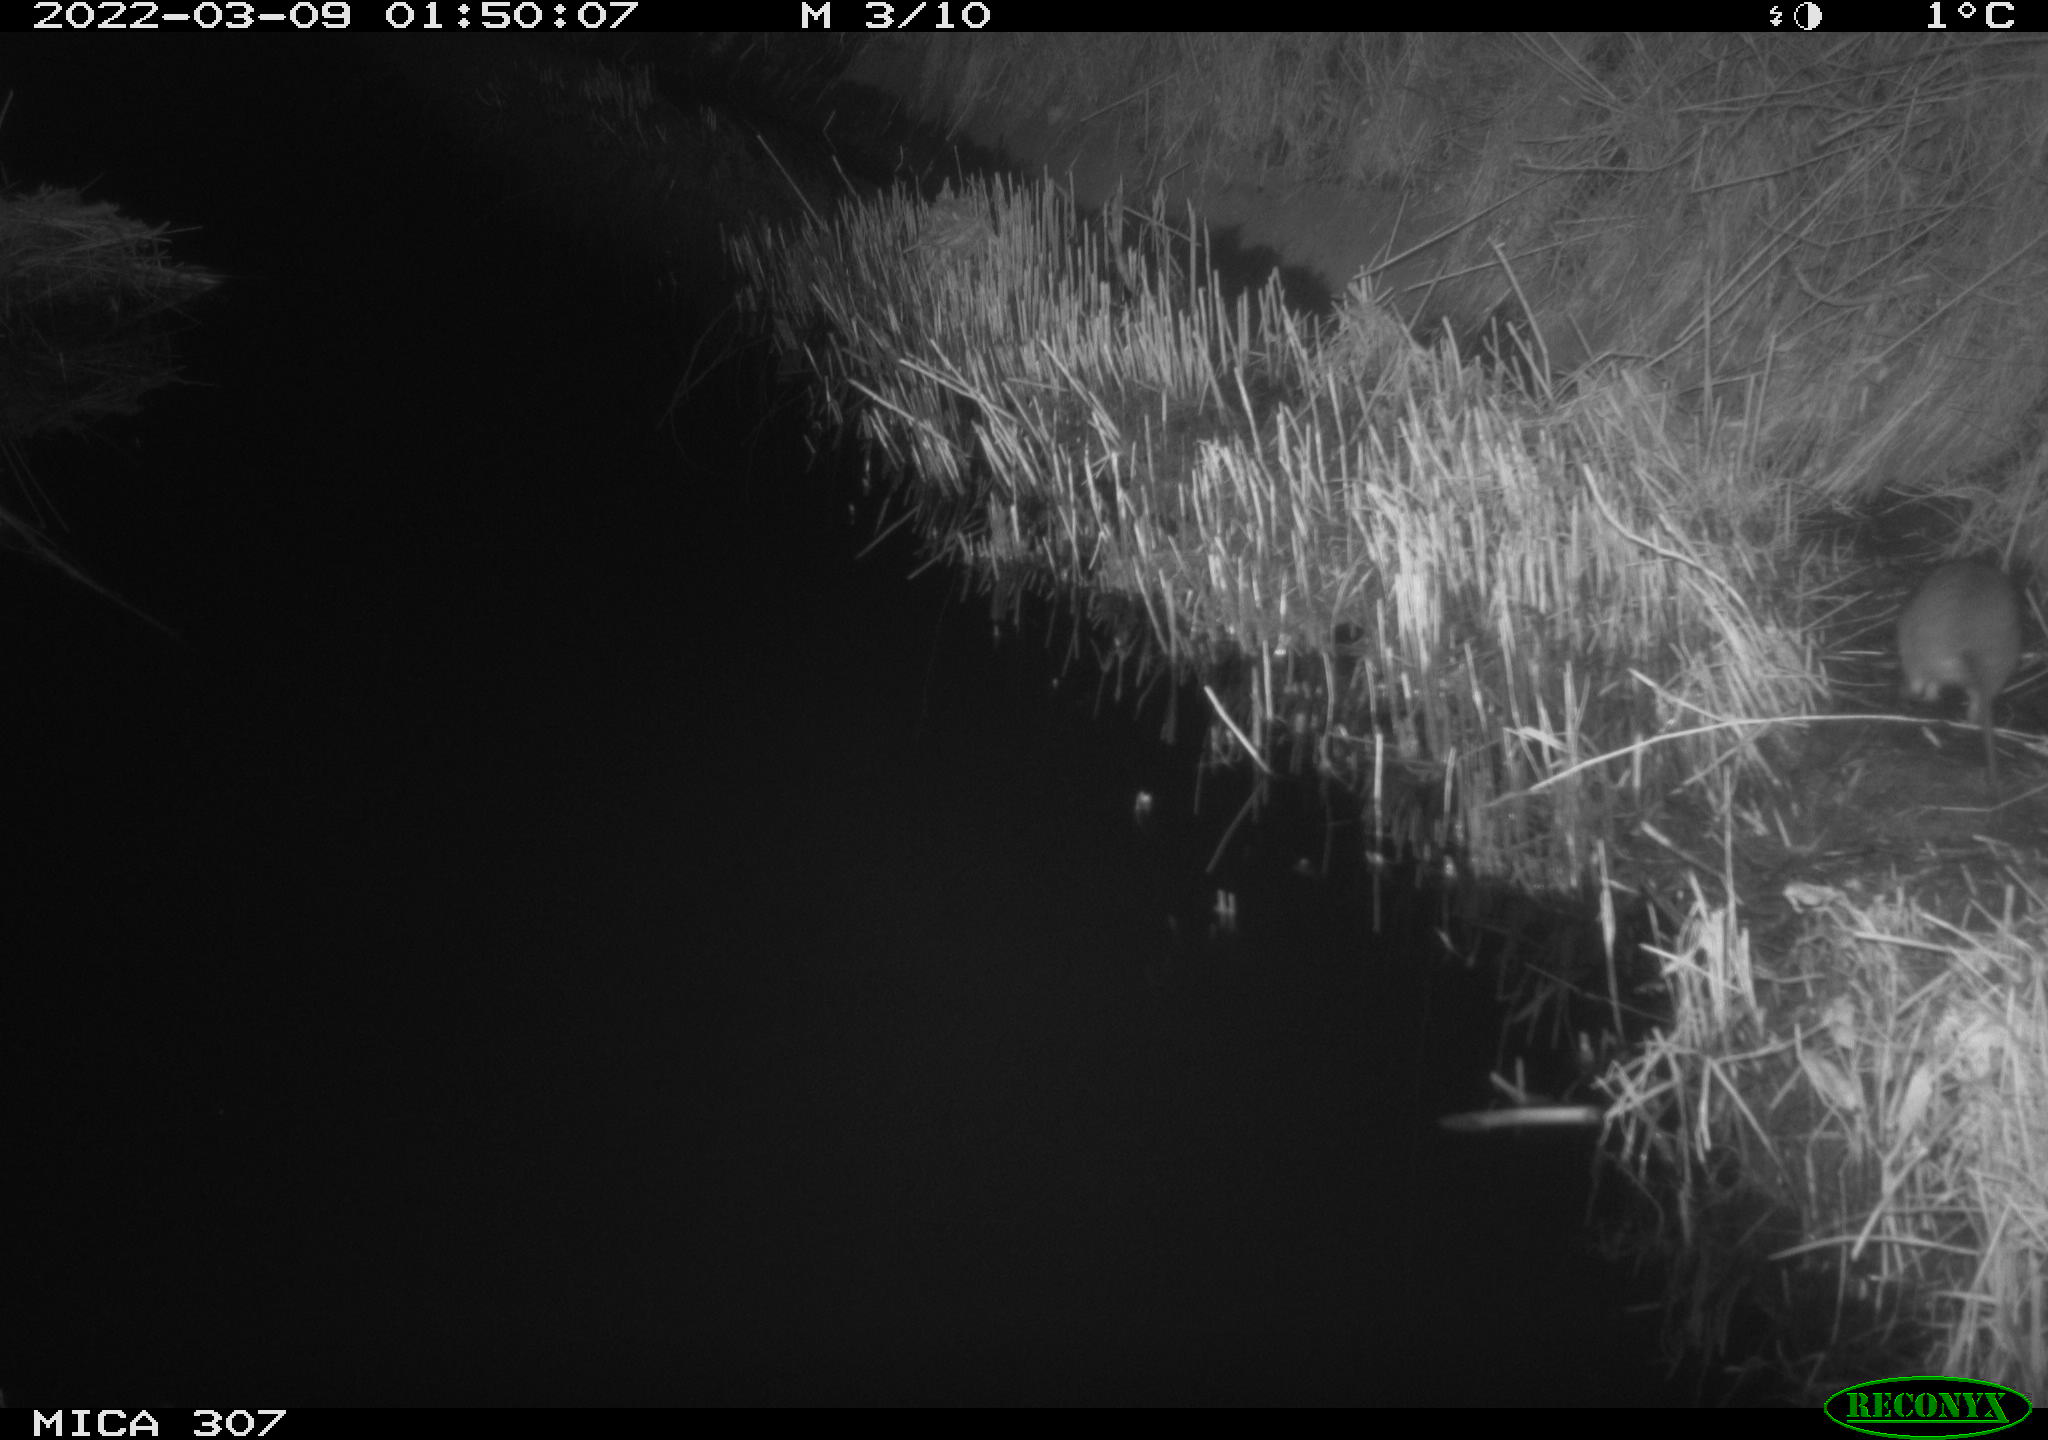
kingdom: Animalia
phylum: Chordata
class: Mammalia
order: Rodentia
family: Muridae
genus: Rattus
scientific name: Rattus norvegicus
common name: Brown rat
